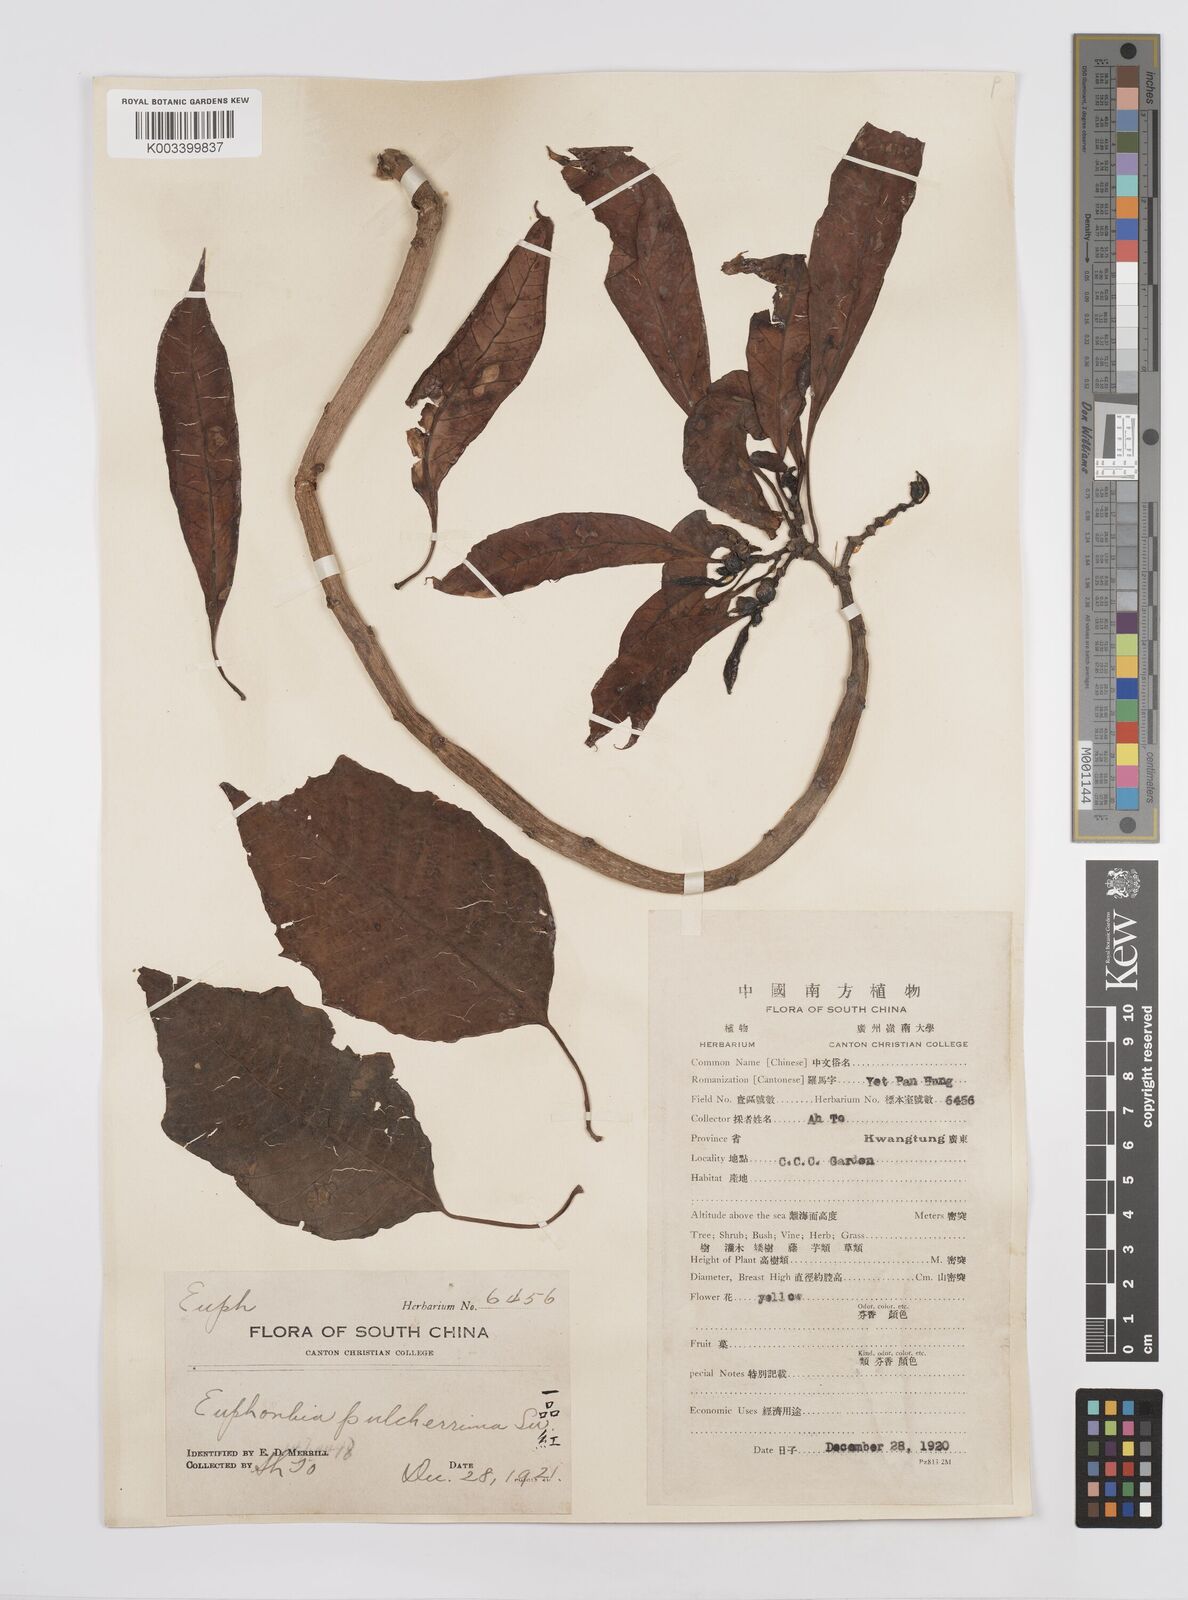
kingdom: Plantae
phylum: Tracheophyta
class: Magnoliopsida
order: Malpighiales
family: Euphorbiaceae
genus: Euphorbia
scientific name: Euphorbia pulcherrima
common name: Christmas-flower
